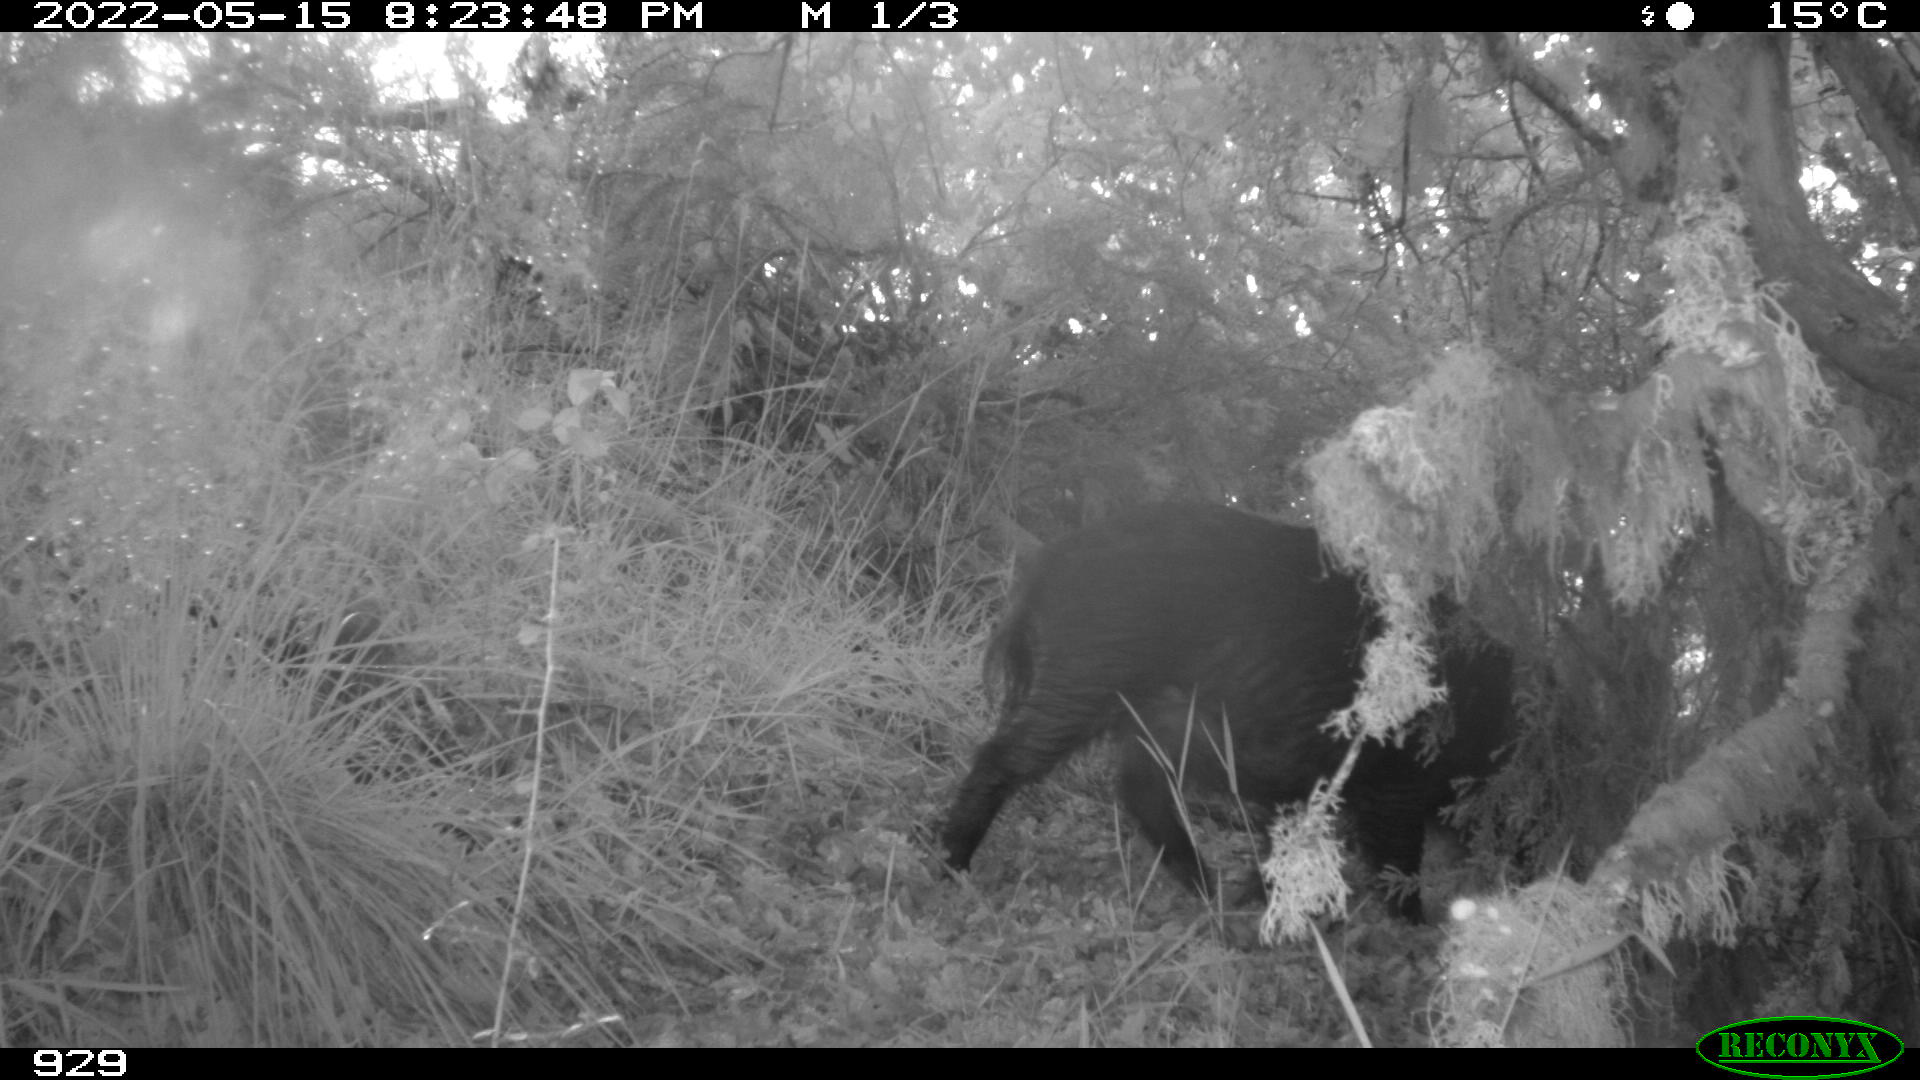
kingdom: Animalia
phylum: Chordata
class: Mammalia
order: Artiodactyla
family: Suidae
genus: Sus
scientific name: Sus scrofa
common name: Wild boar
